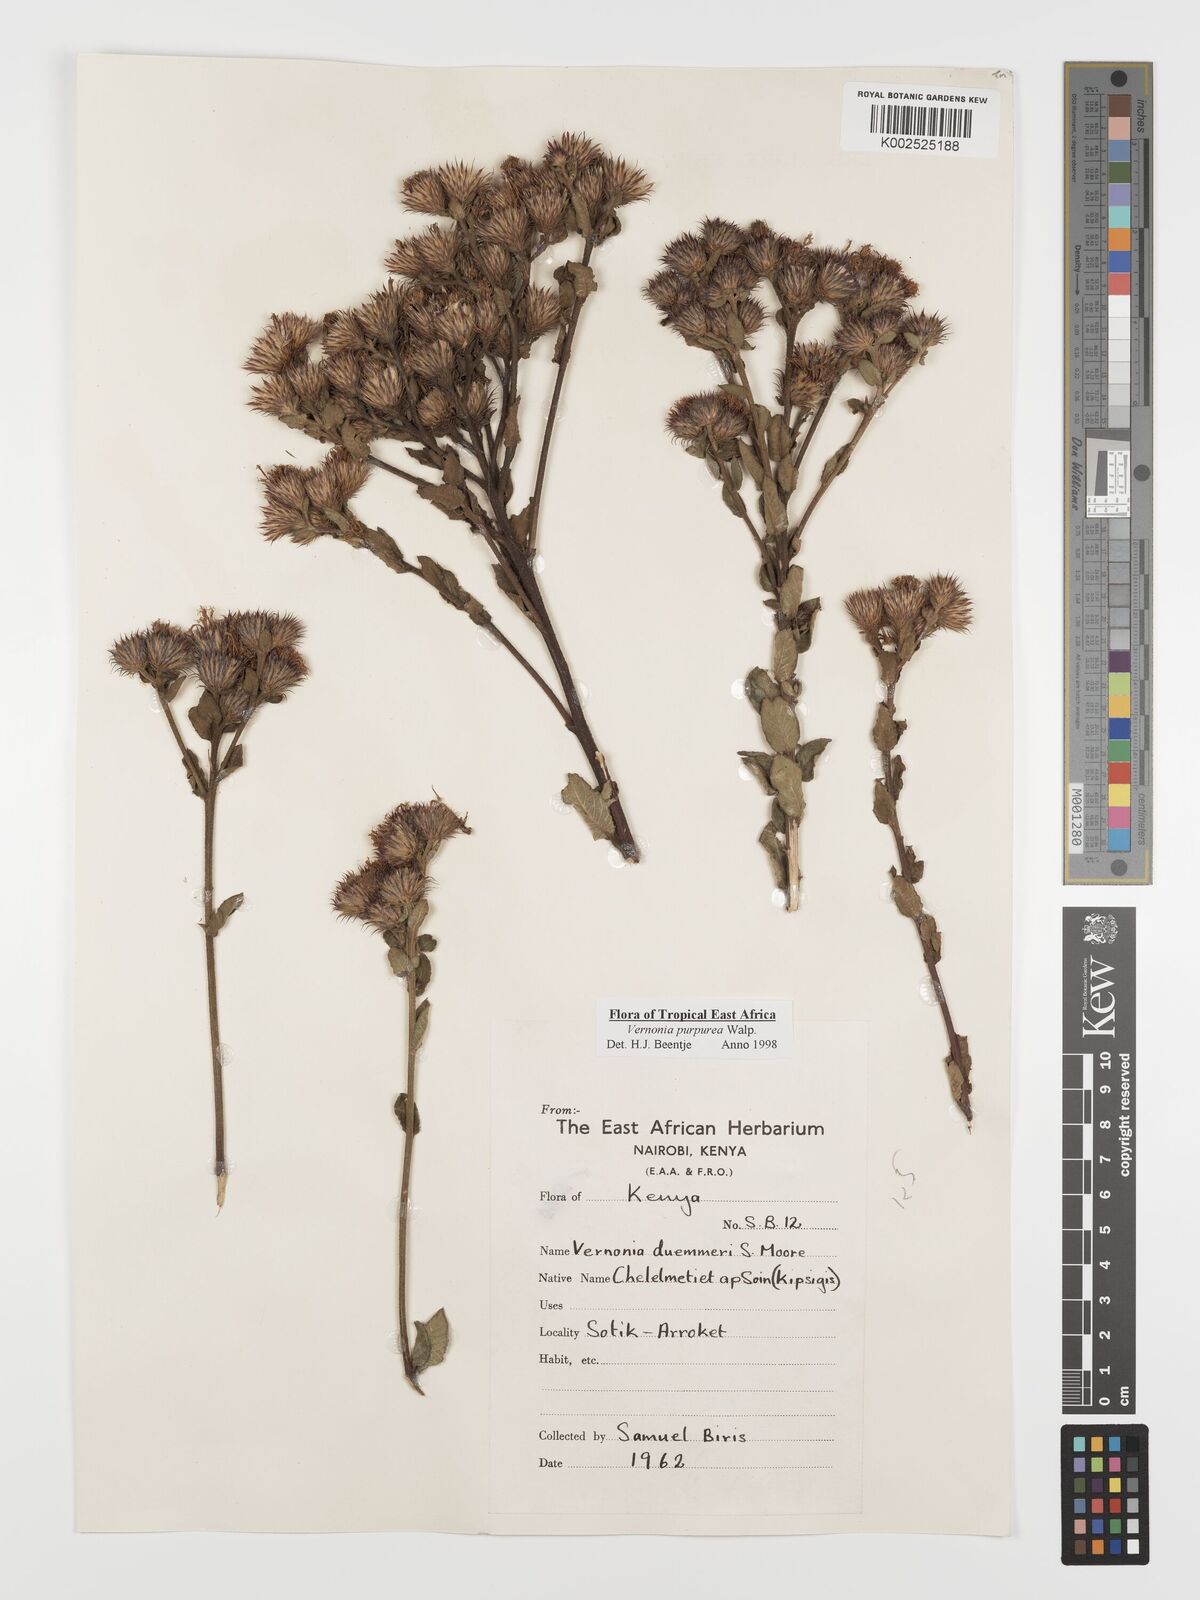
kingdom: Plantae
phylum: Tracheophyta
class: Magnoliopsida
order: Asterales
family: Asteraceae
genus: Nothovernonia
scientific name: Nothovernonia purpurea
